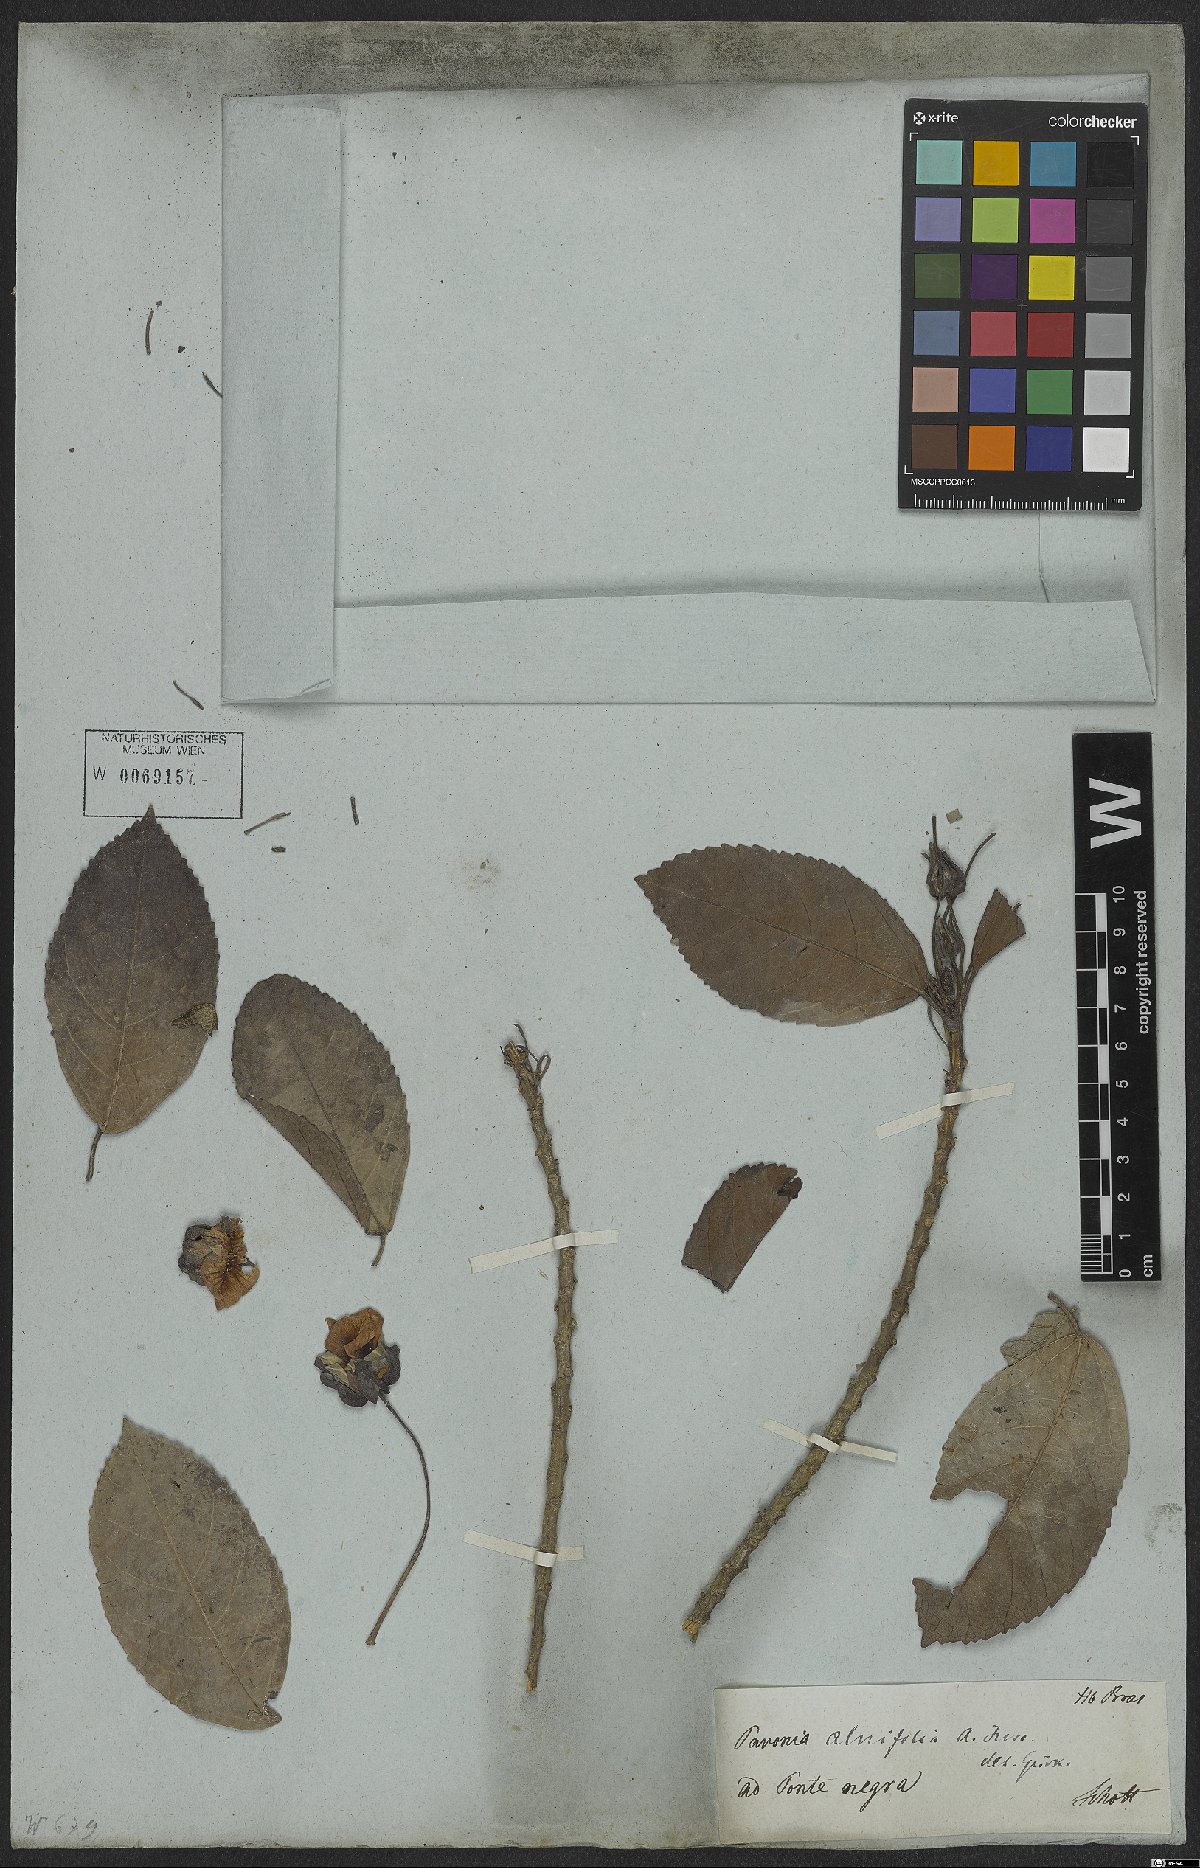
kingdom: Plantae
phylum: Tracheophyta
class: Magnoliopsida
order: Malvales
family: Malvaceae
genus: Pavonia
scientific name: Pavonia alnifolia
